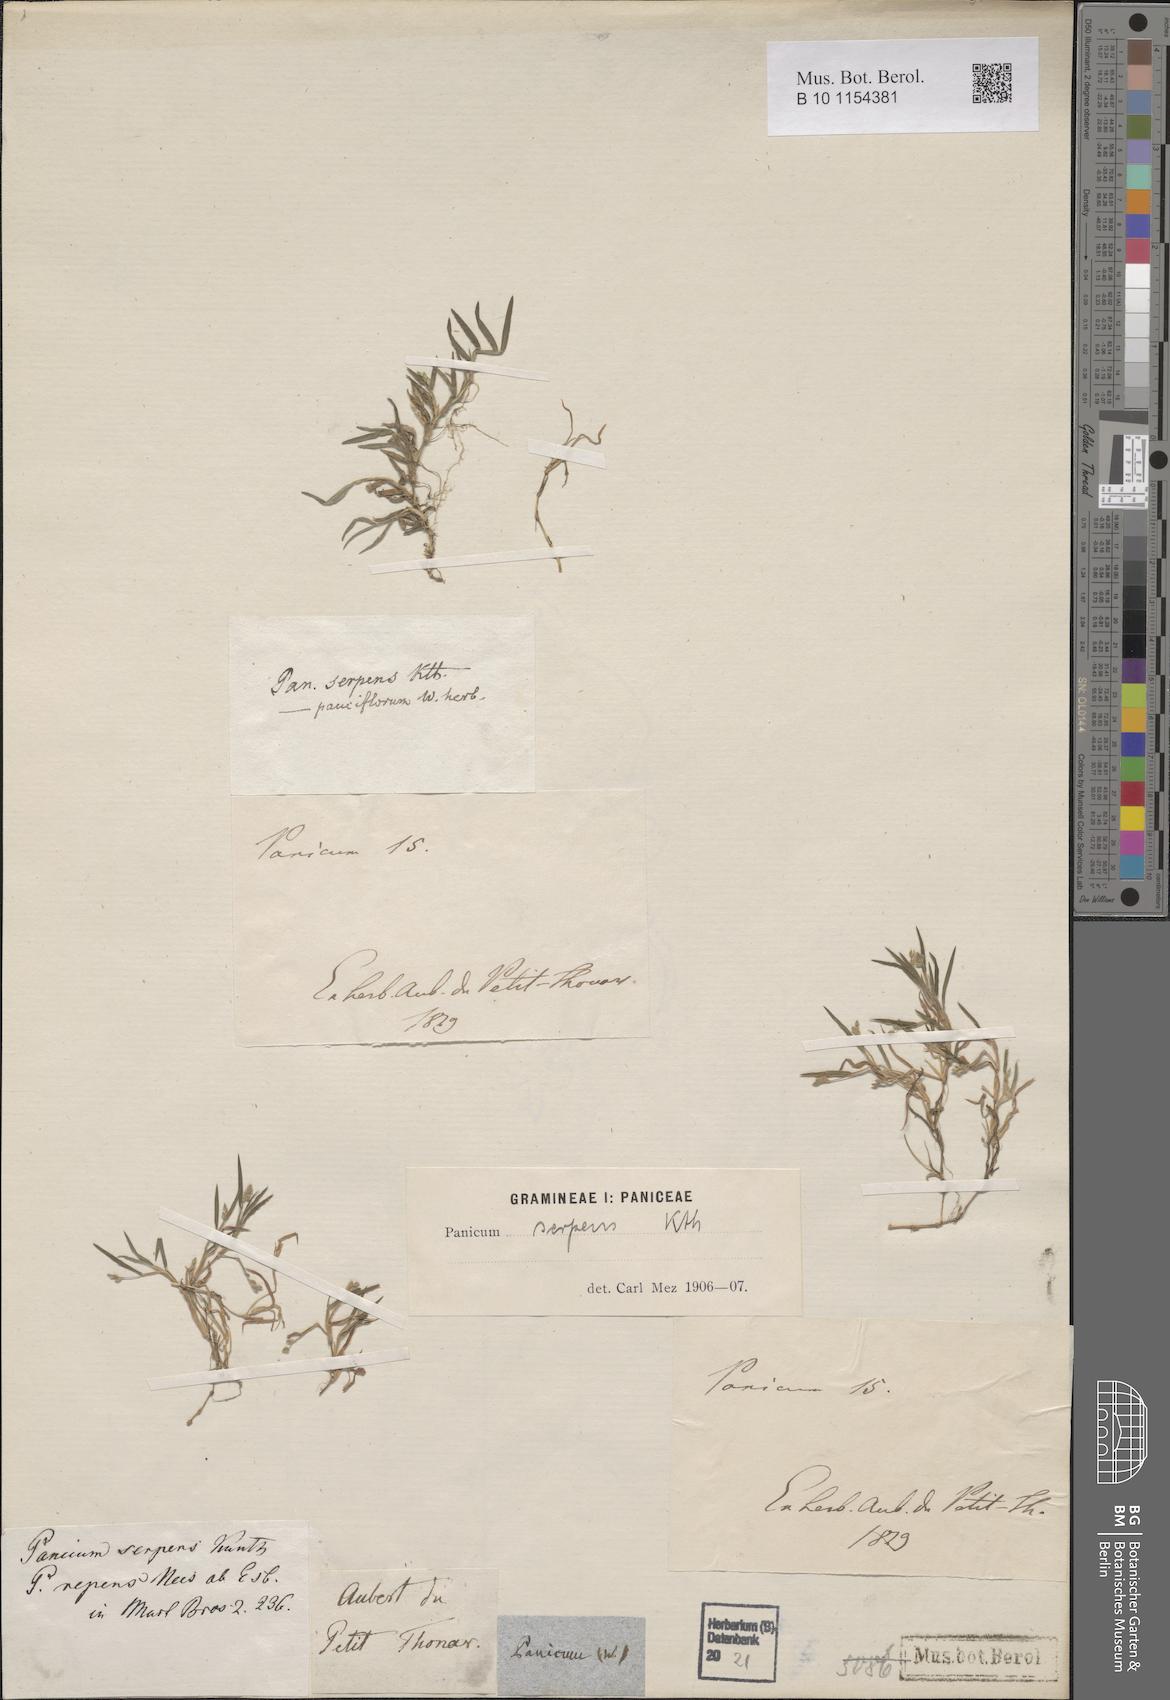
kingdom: Plantae
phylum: Tracheophyta
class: Liliopsida
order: Poales
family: Poaceae
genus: Urochloa
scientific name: Urochloa Brachiaria serpens
